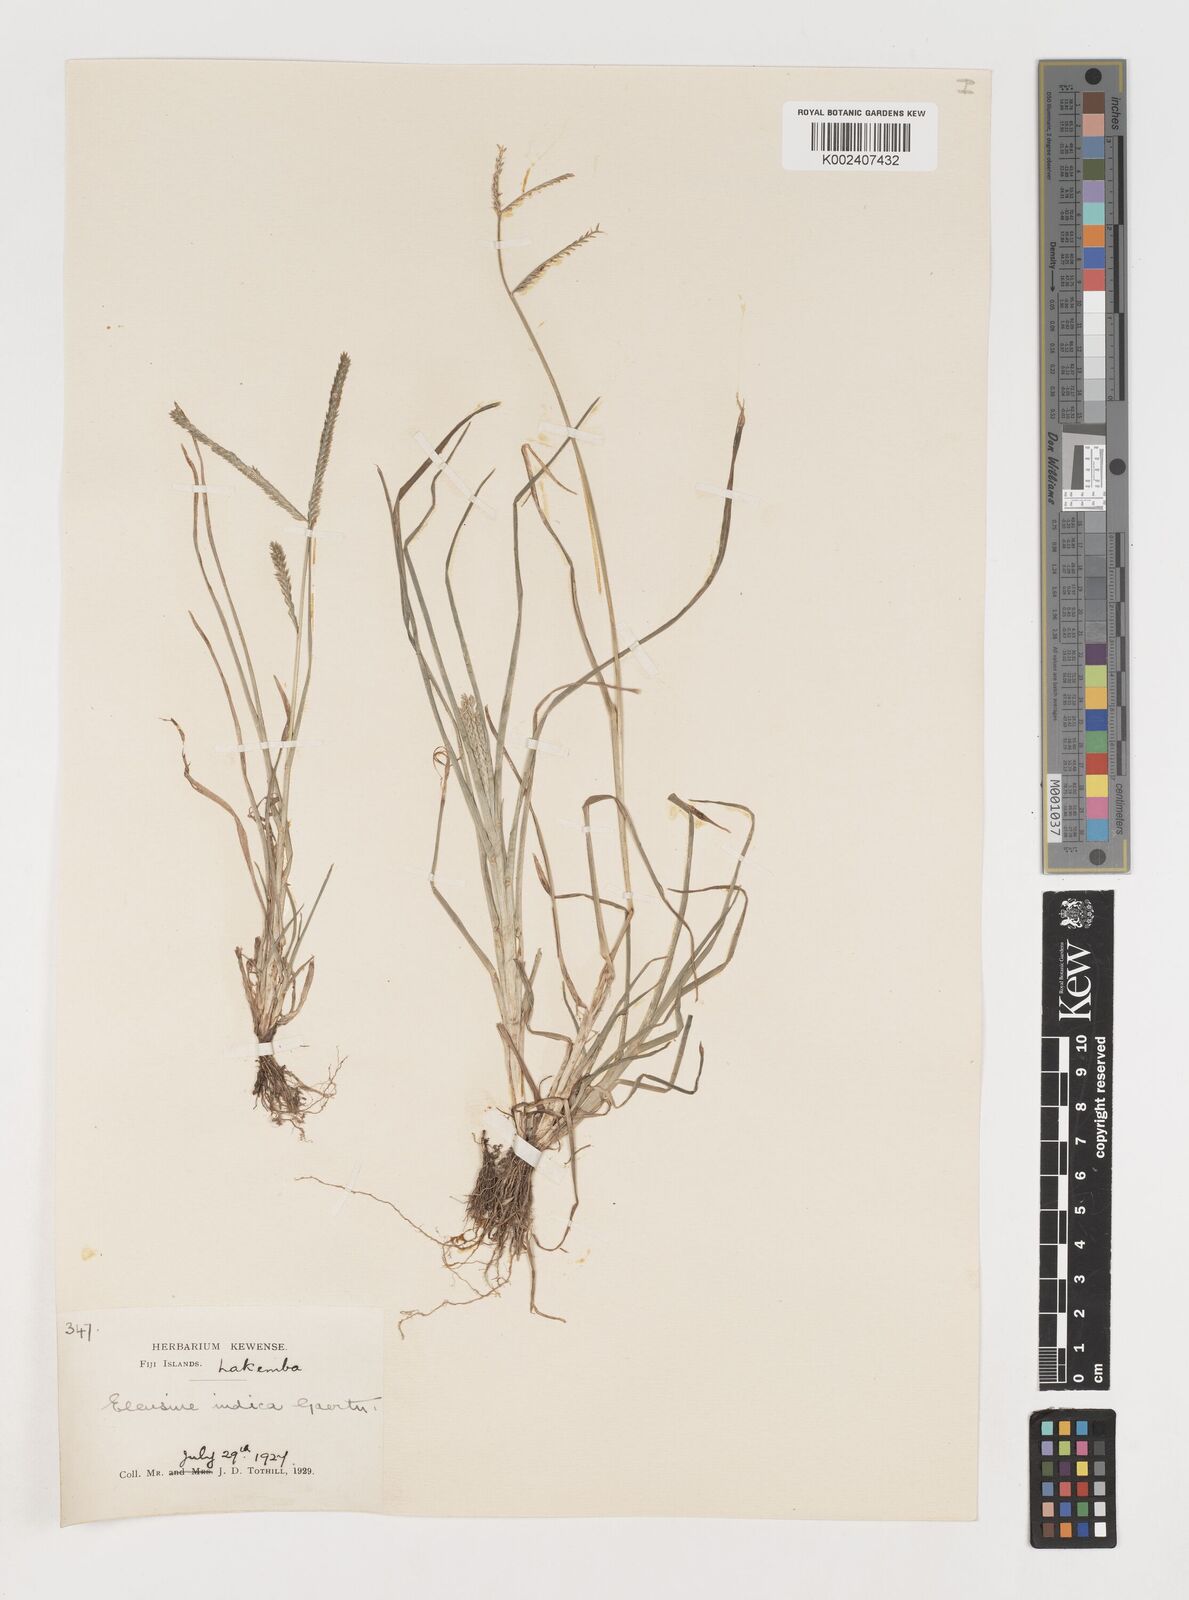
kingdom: Plantae
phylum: Tracheophyta
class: Liliopsida
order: Poales
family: Poaceae
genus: Eleusine
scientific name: Eleusine indica
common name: Yard-grass
